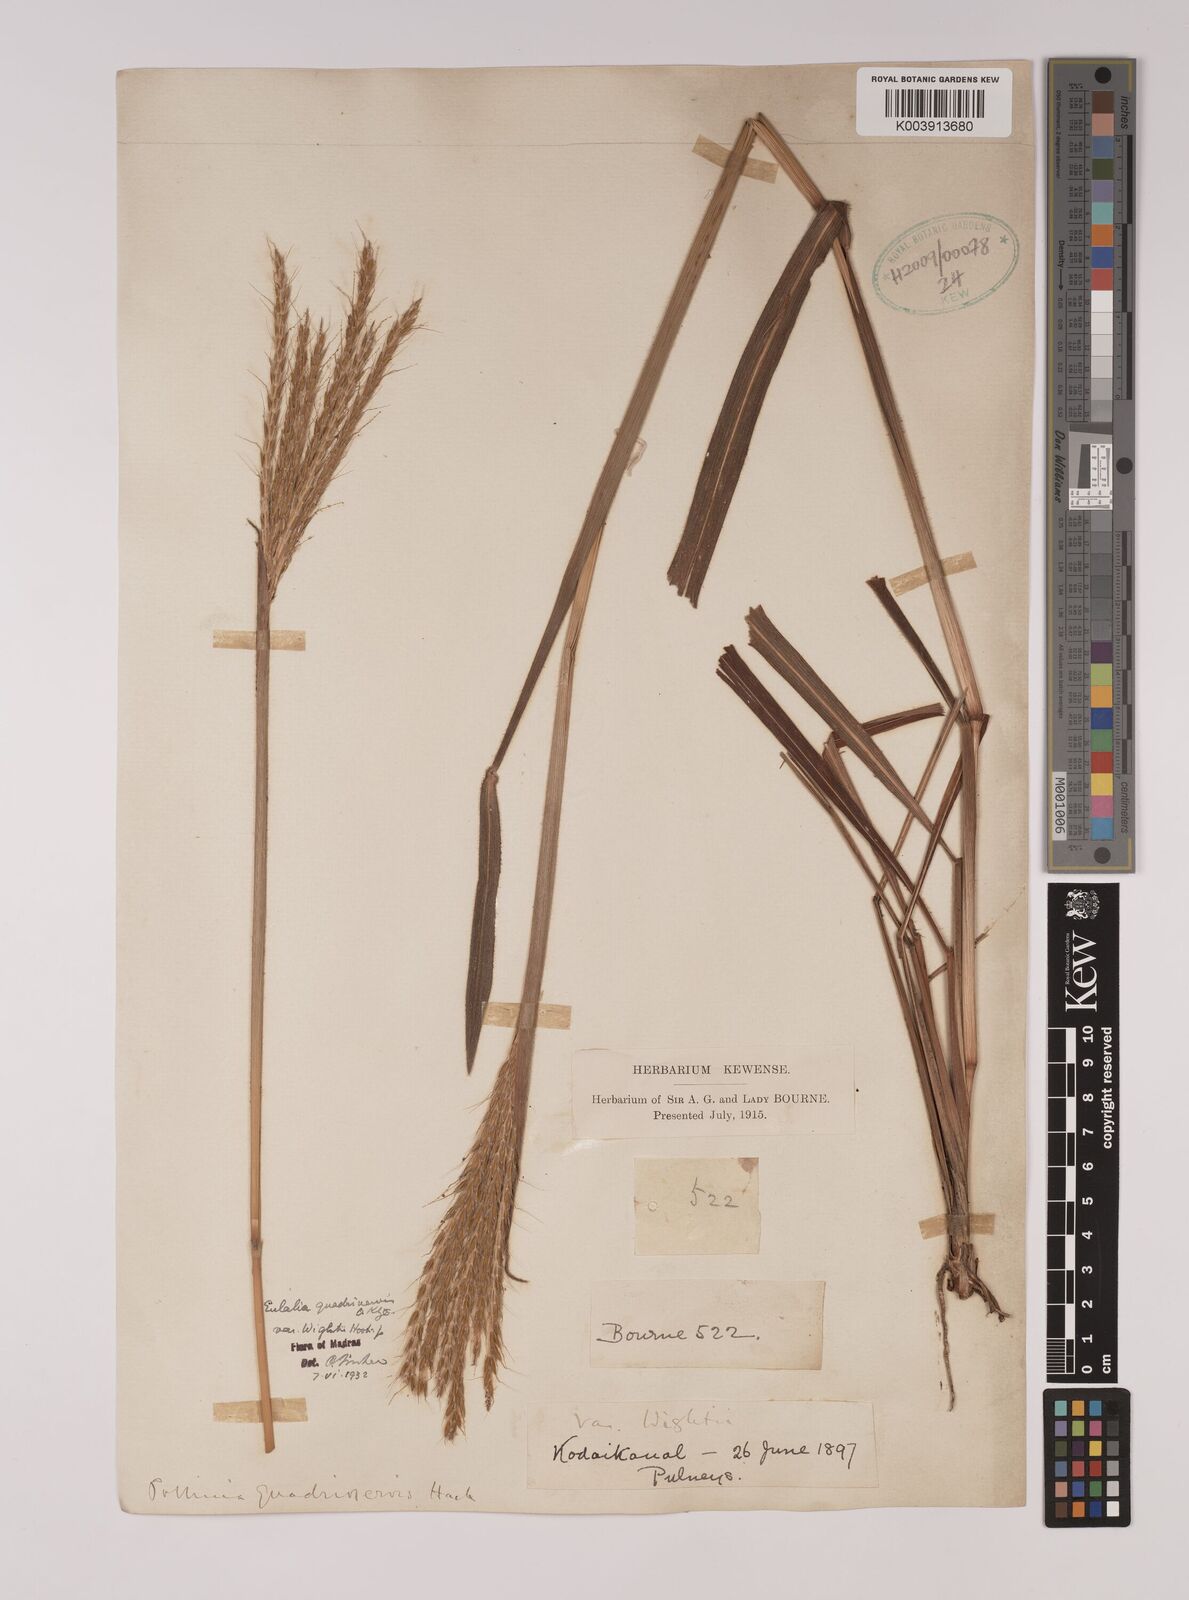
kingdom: Plantae
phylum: Tracheophyta
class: Liliopsida
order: Poales
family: Poaceae
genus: Pseudopogonatherum
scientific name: Pseudopogonatherum quadrinerve
